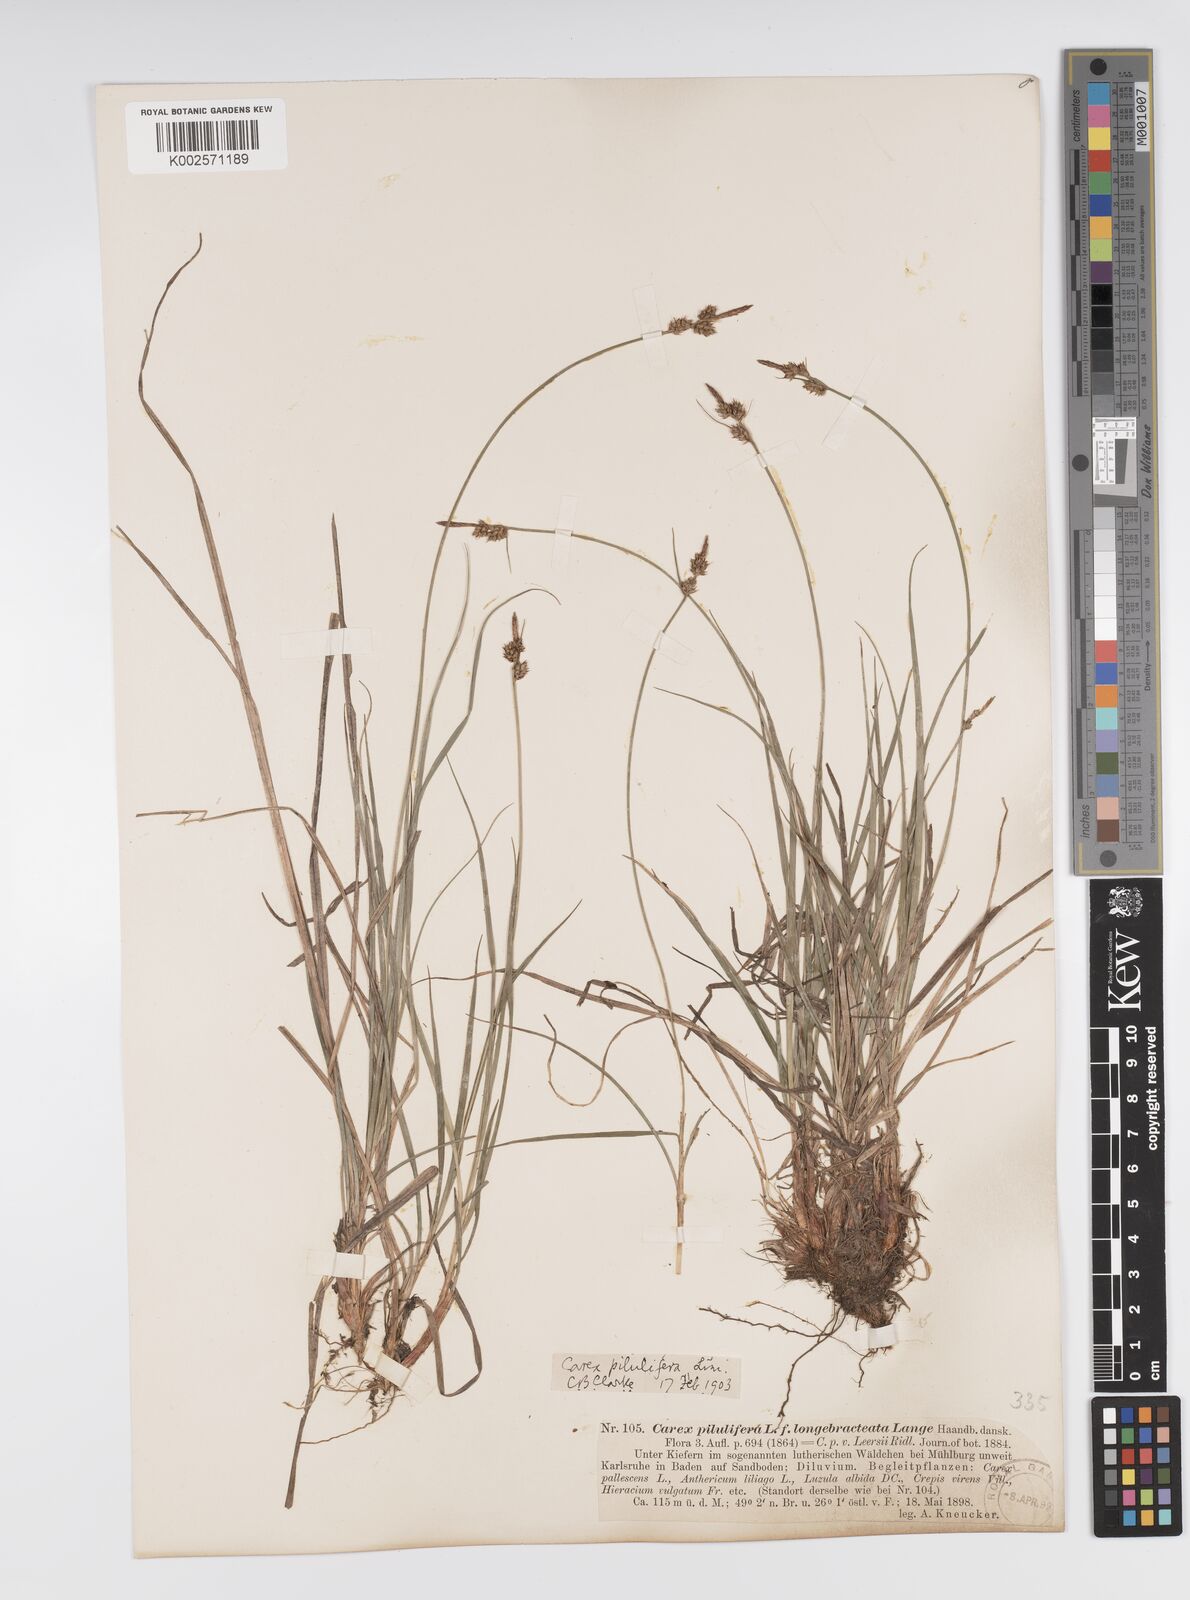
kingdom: Plantae
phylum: Tracheophyta
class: Liliopsida
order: Poales
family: Cyperaceae
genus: Carex
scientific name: Carex pilulifera
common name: Pill sedge
